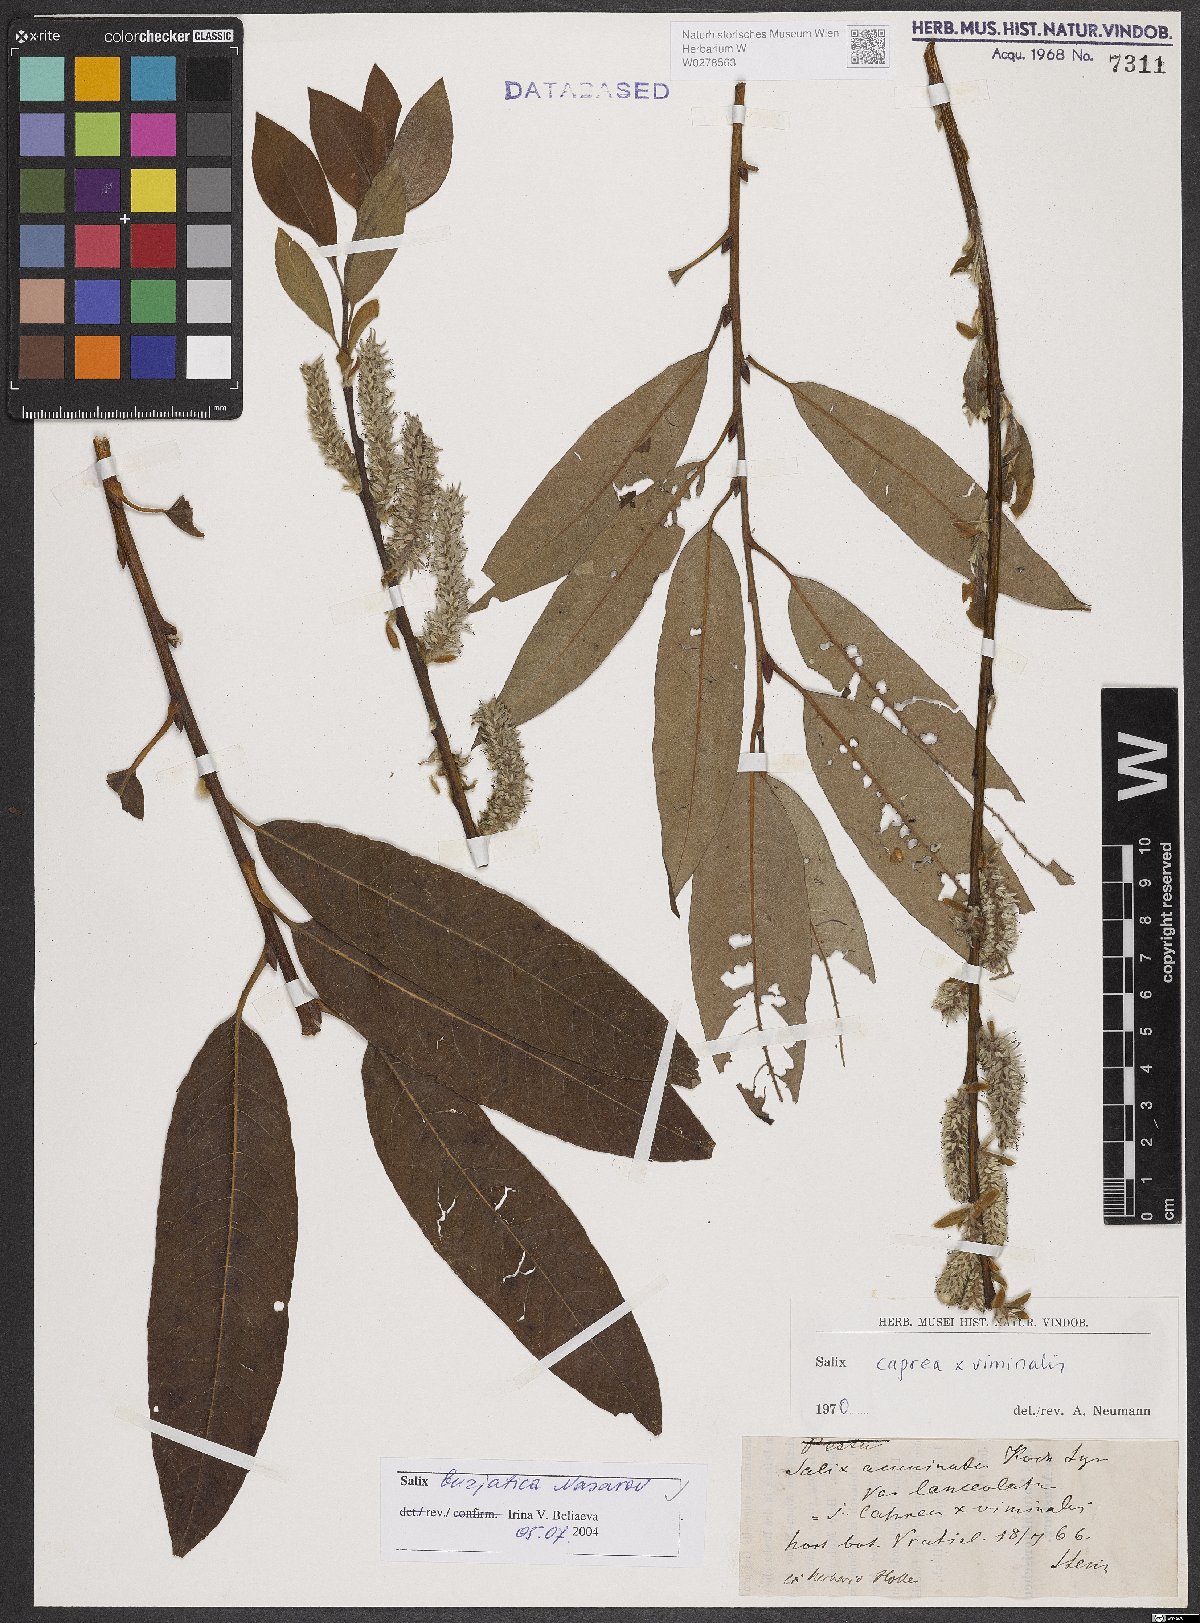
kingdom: Plantae
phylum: Tracheophyta
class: Magnoliopsida
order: Malpighiales
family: Salicaceae
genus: Salix
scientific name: Salix gmelinii
